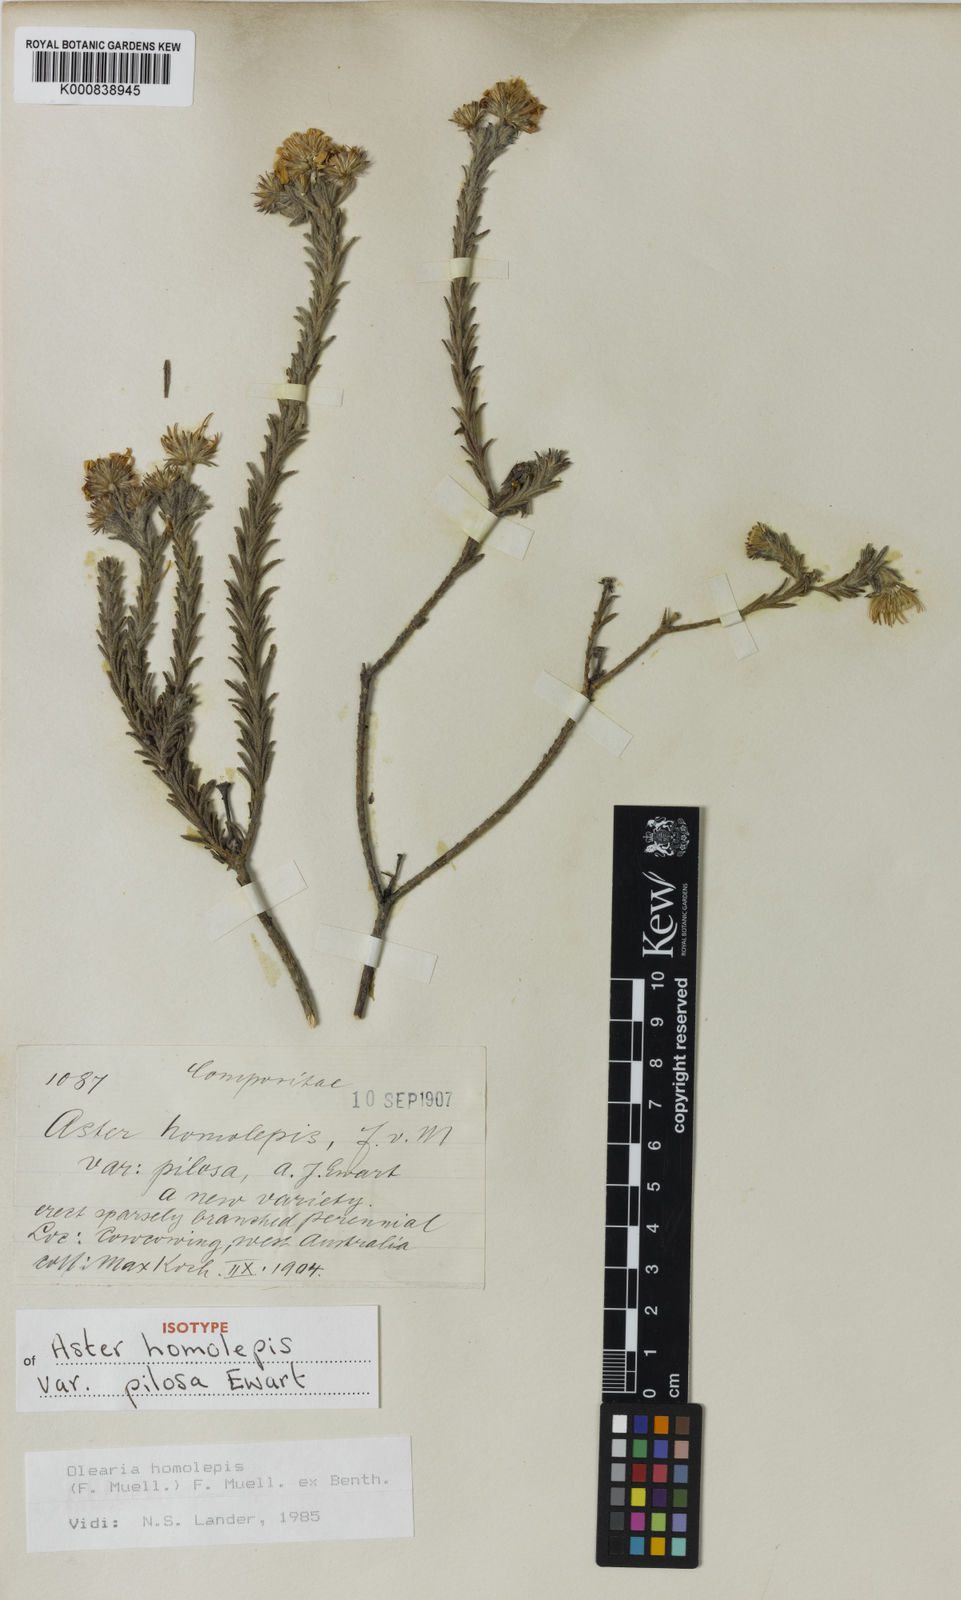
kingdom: Plantae
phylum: Tracheophyta
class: Magnoliopsida
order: Asterales
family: Asteraceae
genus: Olearia
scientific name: Olearia homolepis
